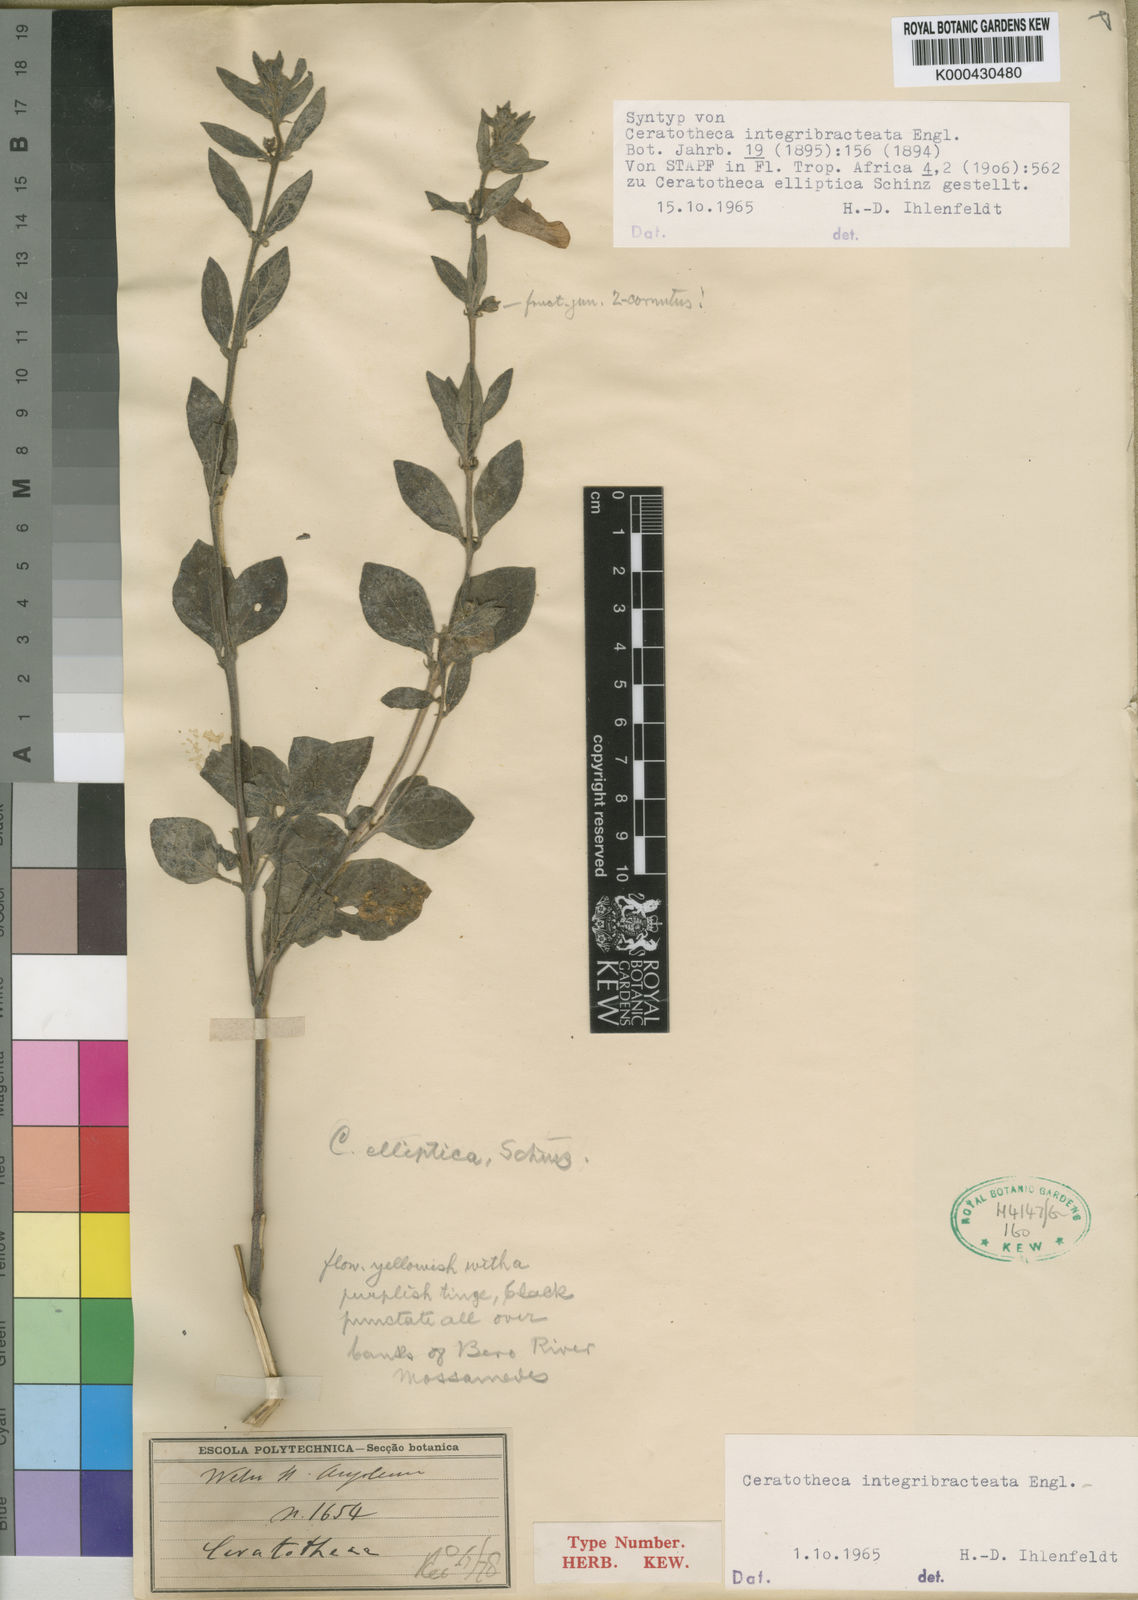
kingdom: Plantae
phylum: Tracheophyta
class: Magnoliopsida
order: Lamiales
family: Pedaliaceae
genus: Sesamum
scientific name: Sesamum integribracteatum
